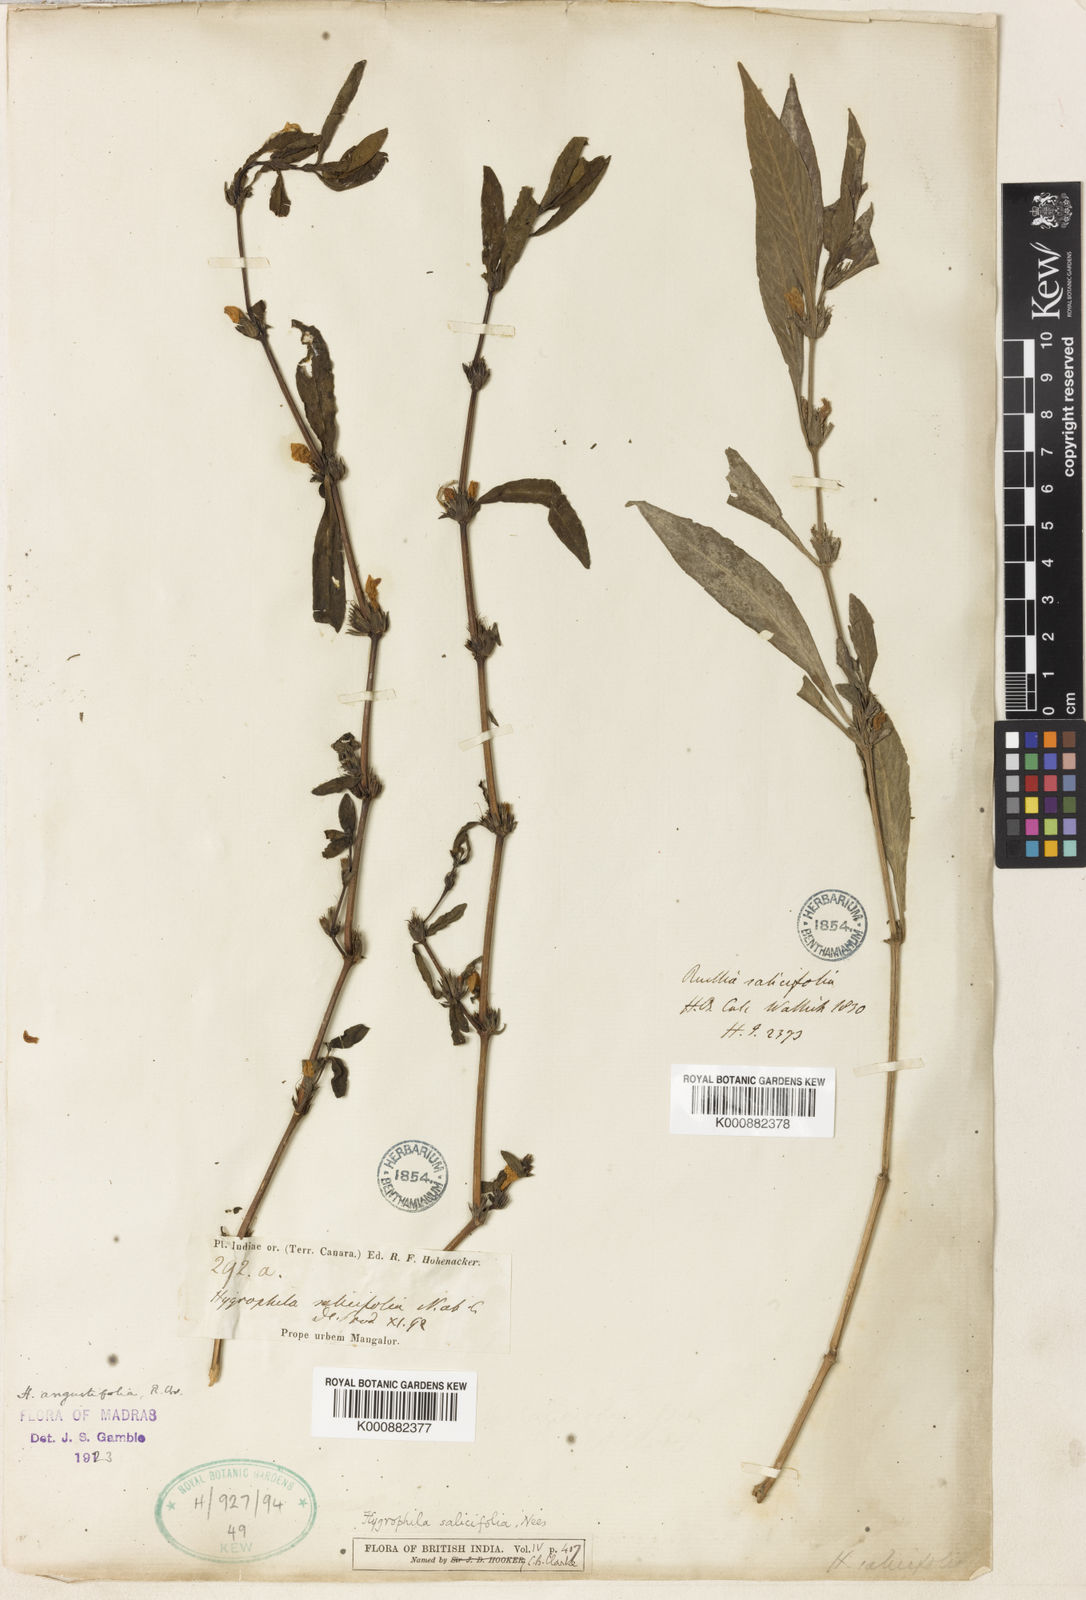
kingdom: Plantae
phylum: Tracheophyta
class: Magnoliopsida
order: Lamiales
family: Acanthaceae
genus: Hygrophila
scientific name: Hygrophila ringens
